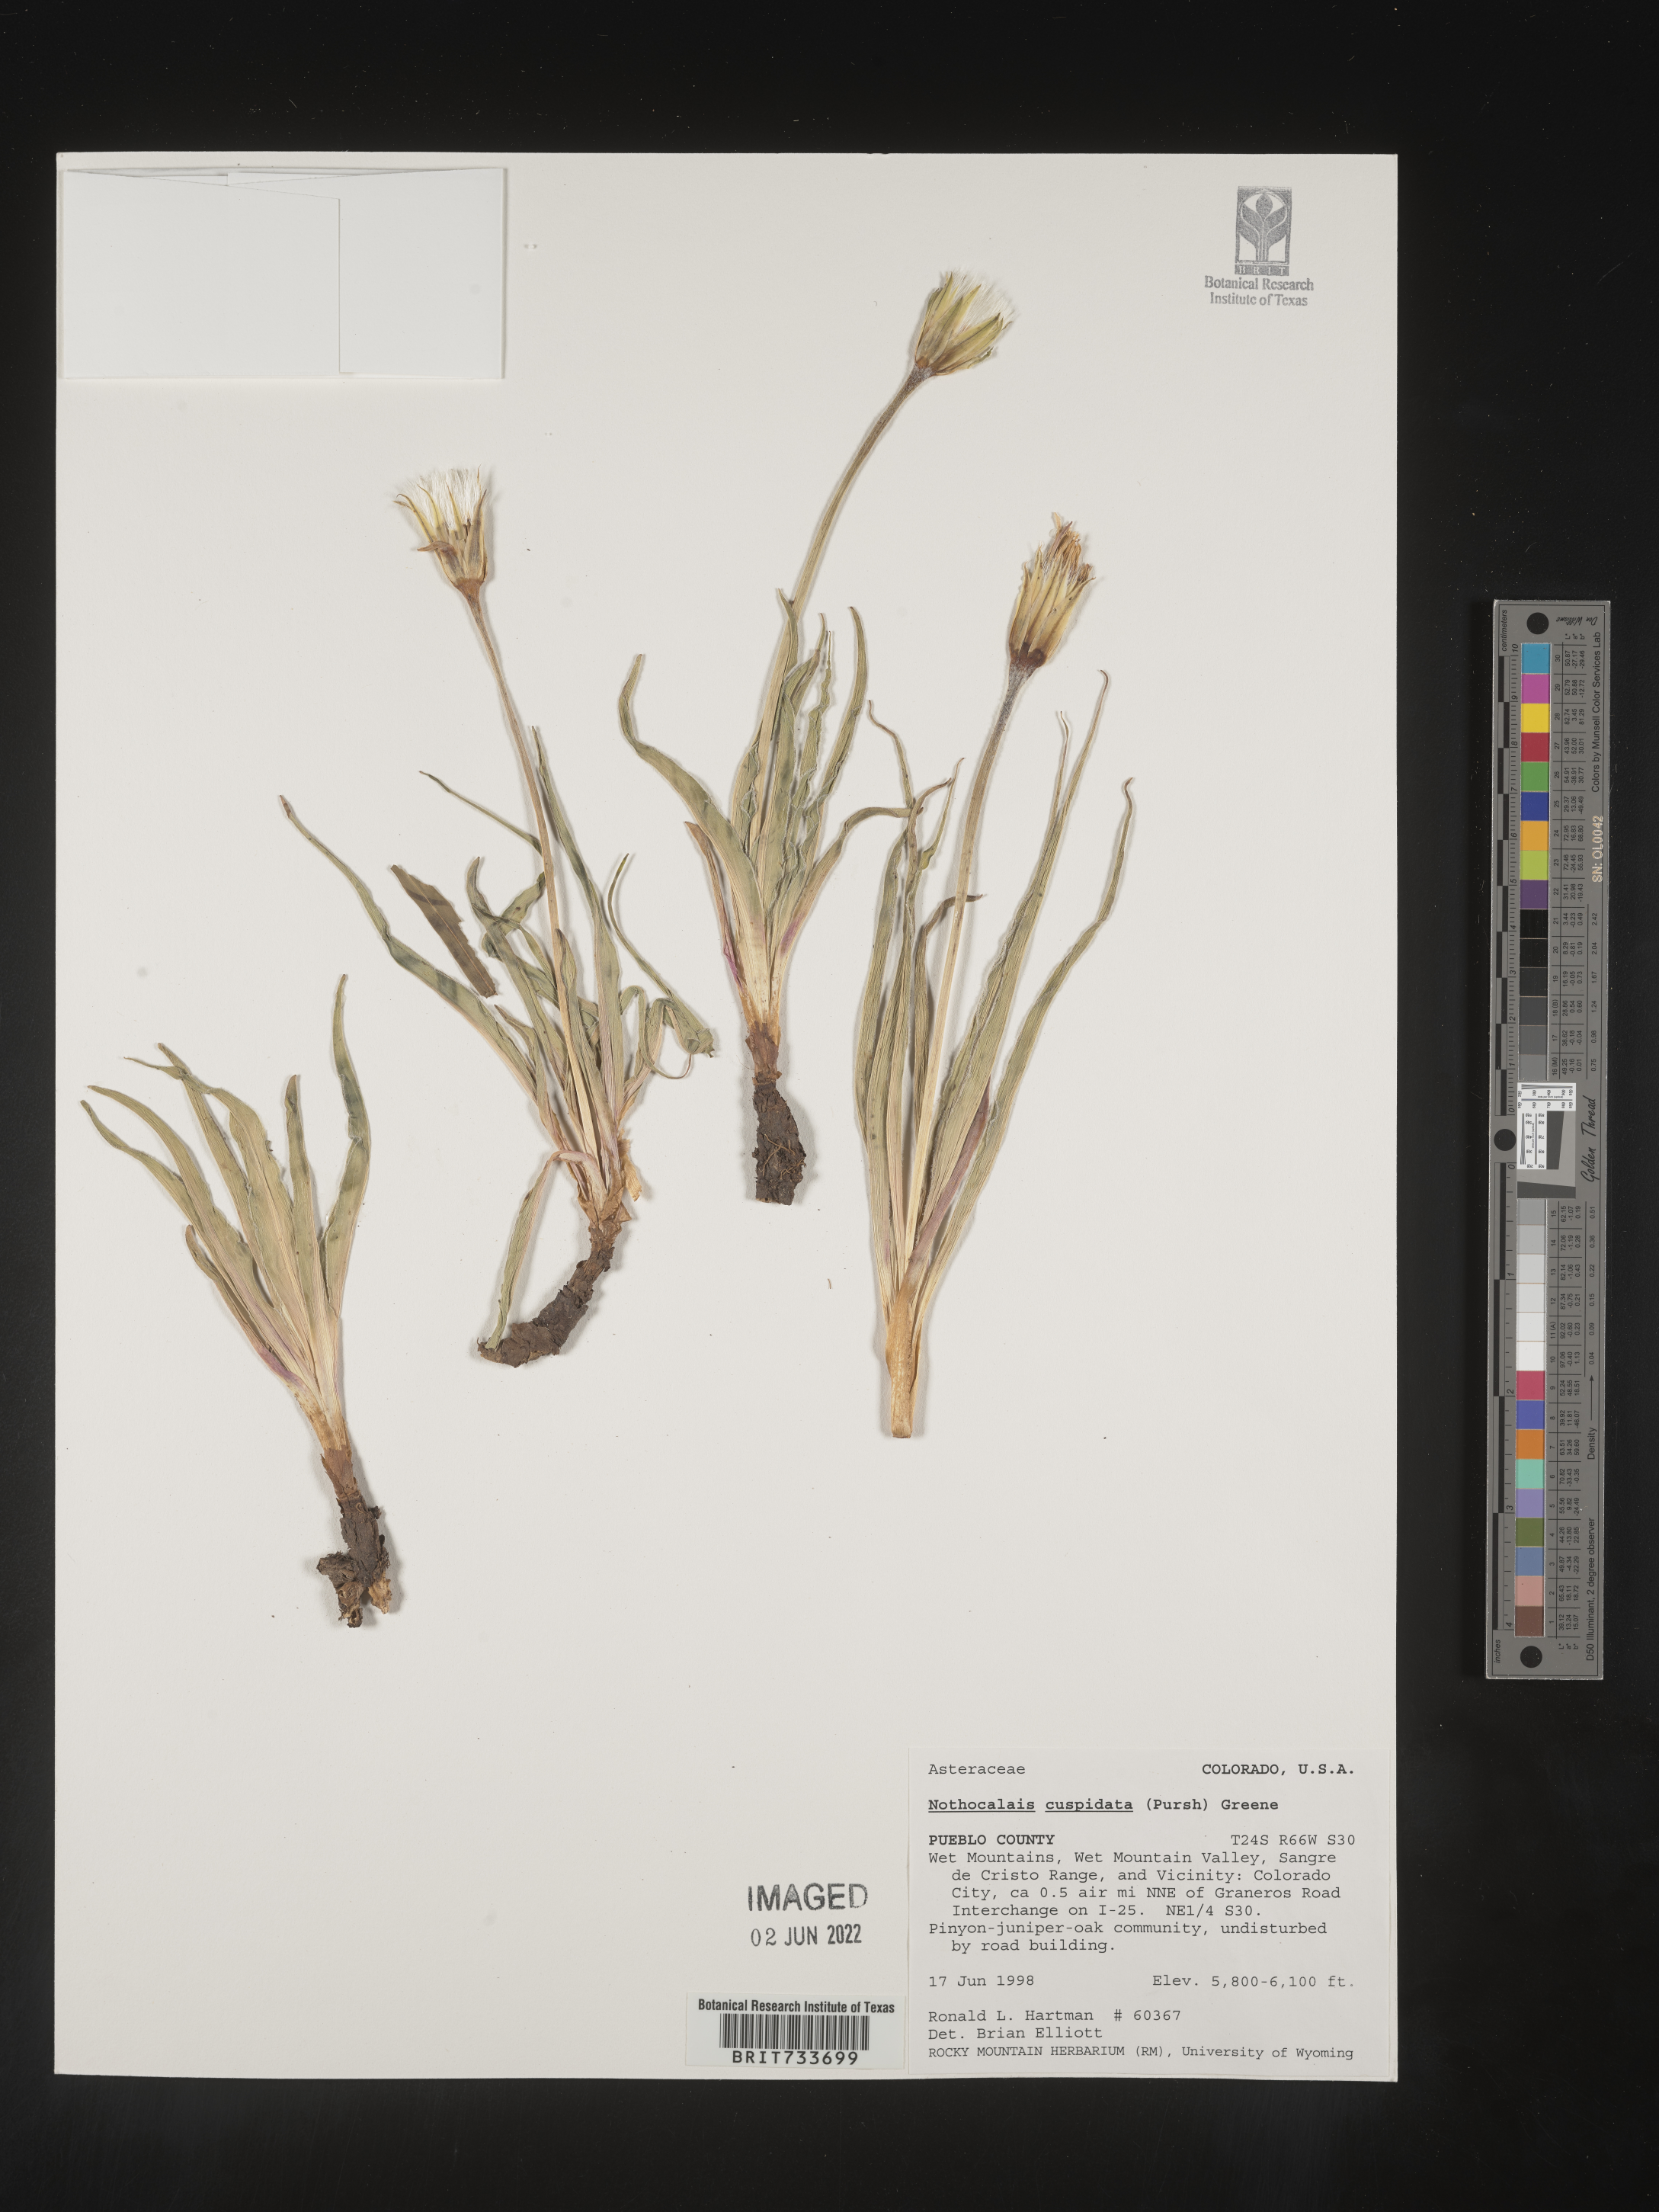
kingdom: Plantae
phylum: Tracheophyta
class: Magnoliopsida
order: Asterales
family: Asteraceae
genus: Microseris
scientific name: Microseris
